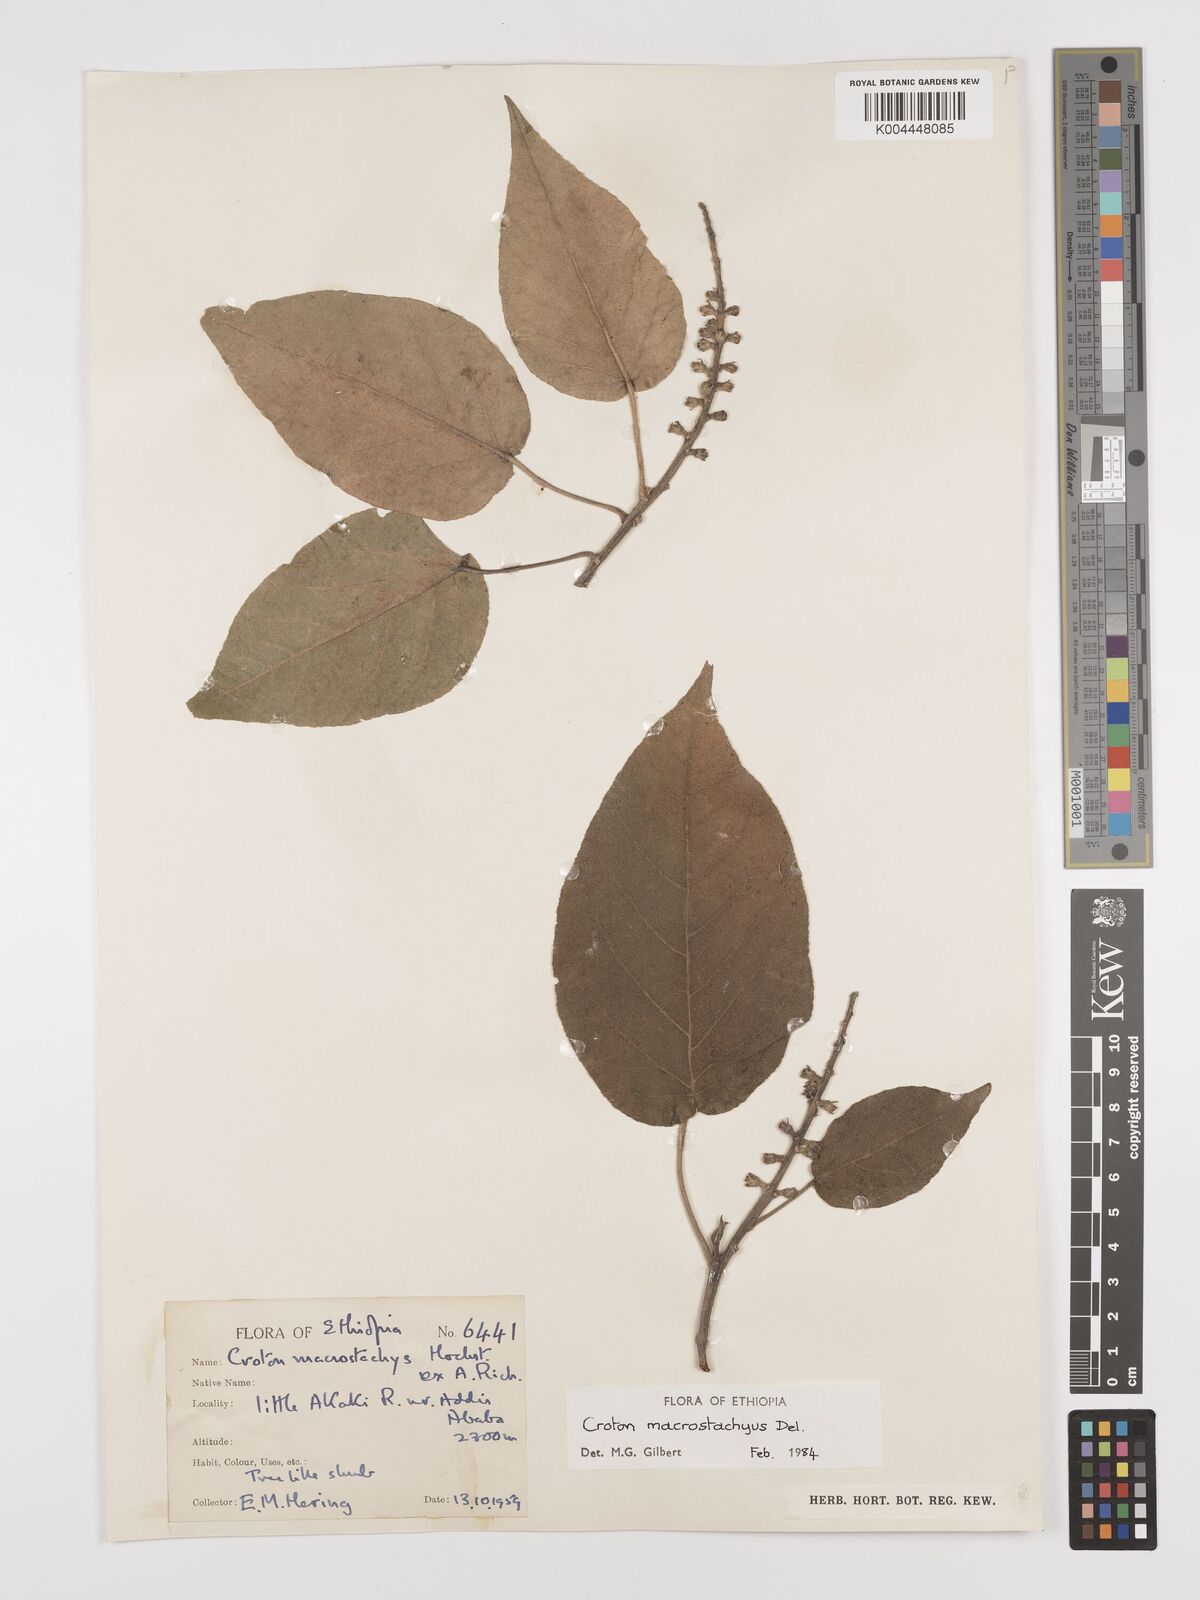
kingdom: Plantae
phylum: Tracheophyta
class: Magnoliopsida
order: Malpighiales
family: Euphorbiaceae
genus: Croton
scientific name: Croton macrostachyus
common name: Mutundu
